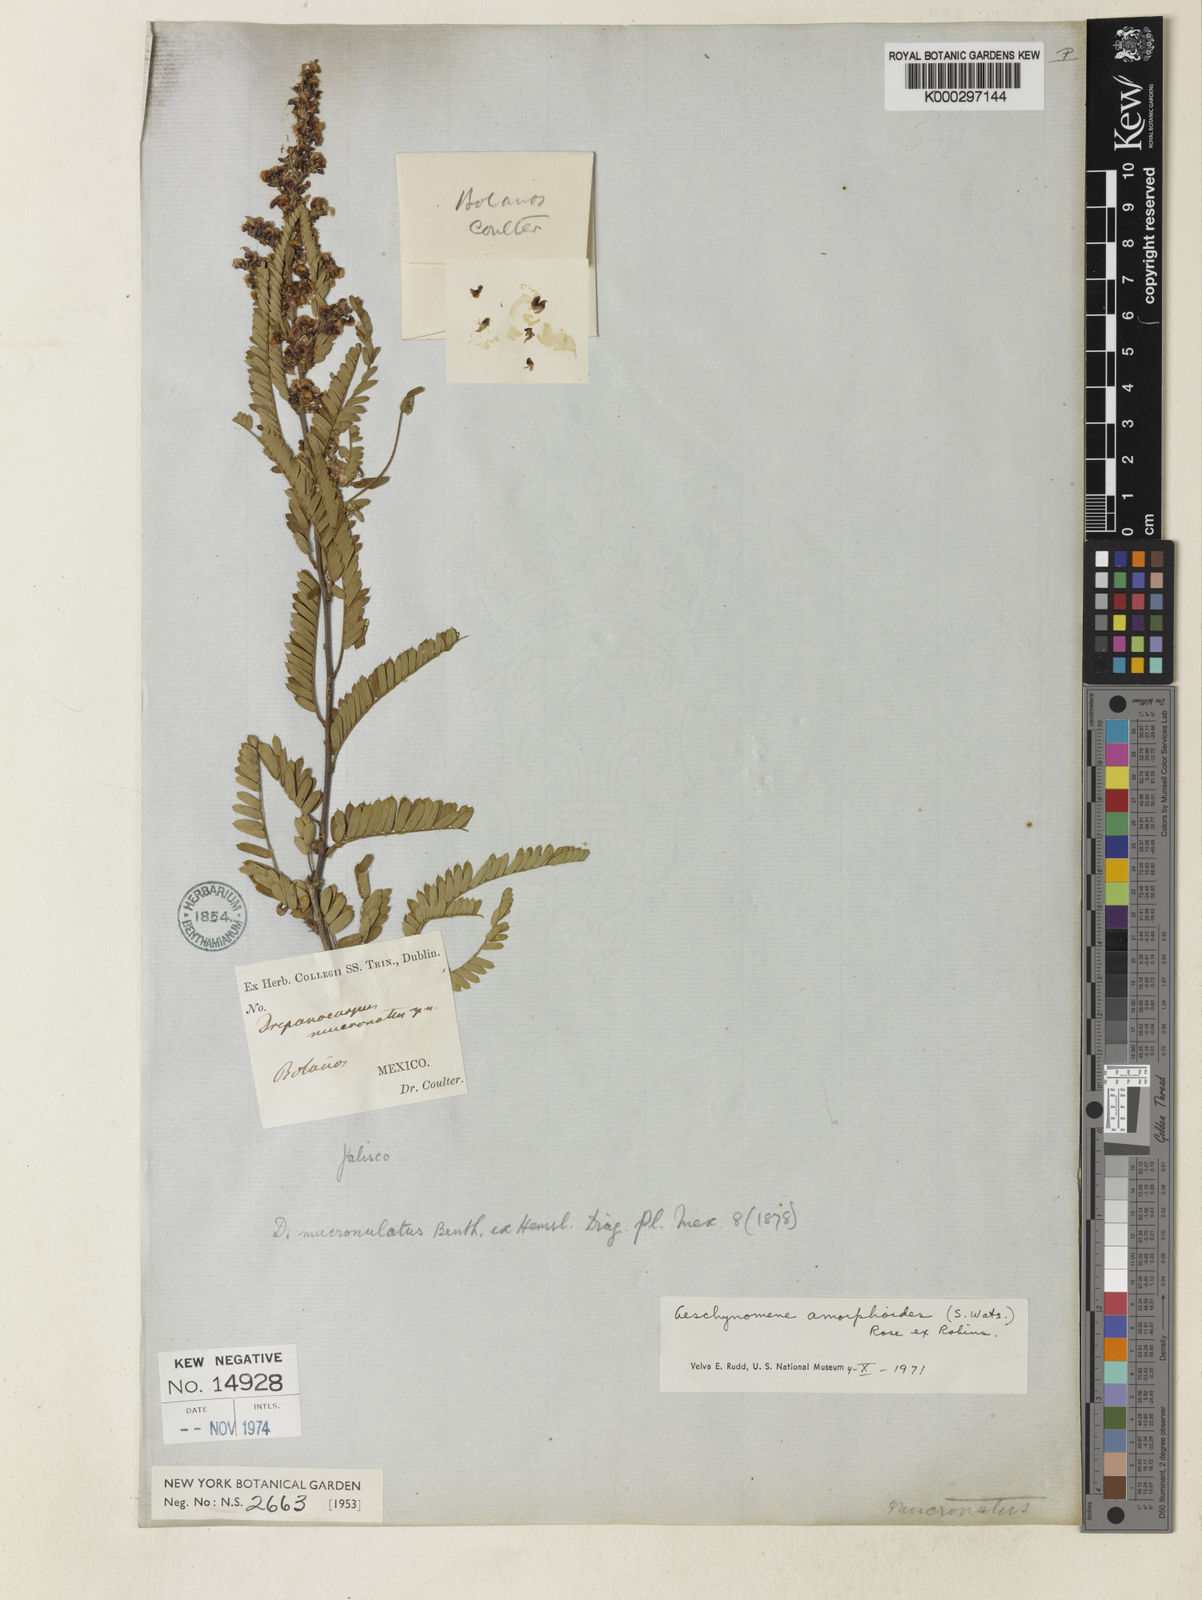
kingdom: Plantae
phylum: Tracheophyta
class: Magnoliopsida
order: Fabales
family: Fabaceae
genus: Ctenodon
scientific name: Ctenodon mucronulatus
